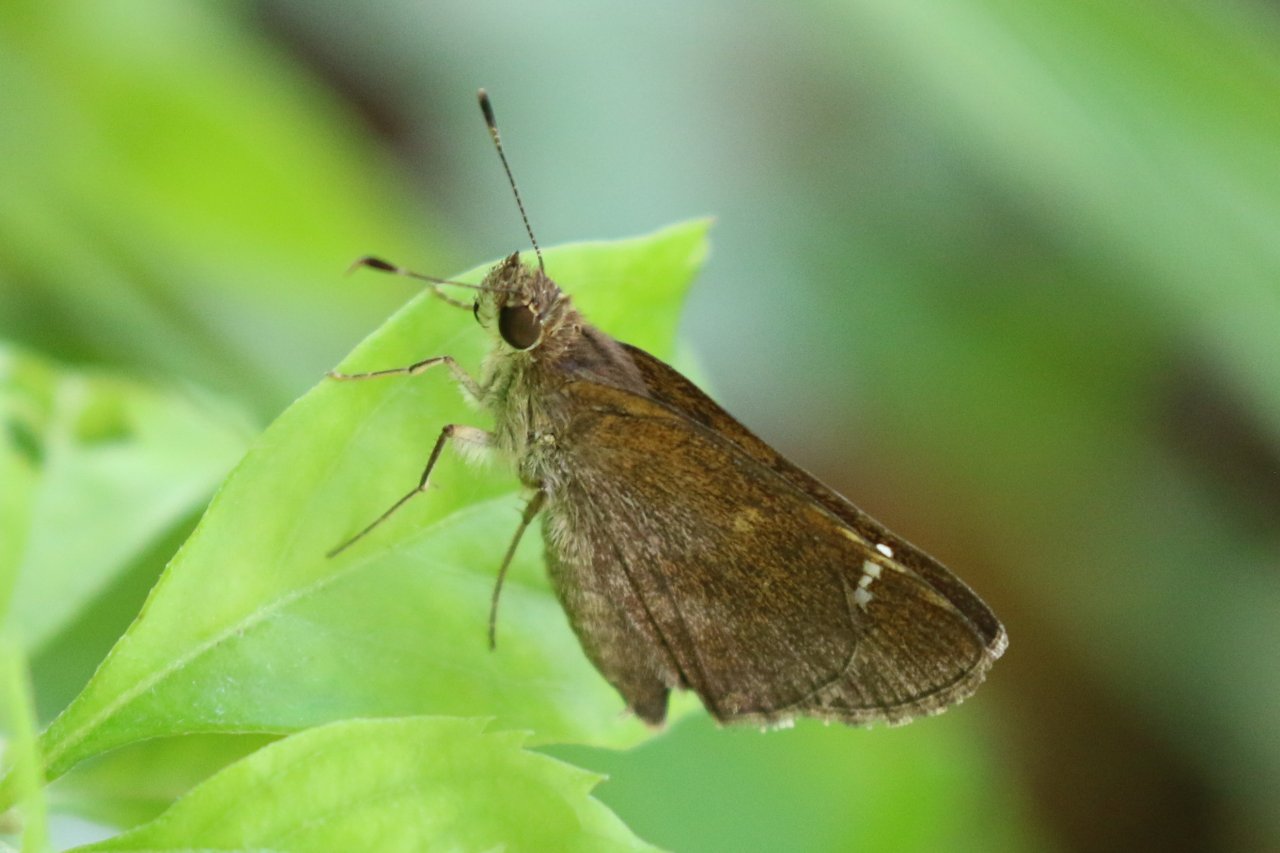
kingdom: Animalia
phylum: Arthropoda
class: Insecta
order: Lepidoptera
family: Hesperiidae
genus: Lerema
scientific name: Lerema accius
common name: Clouded Skipper
